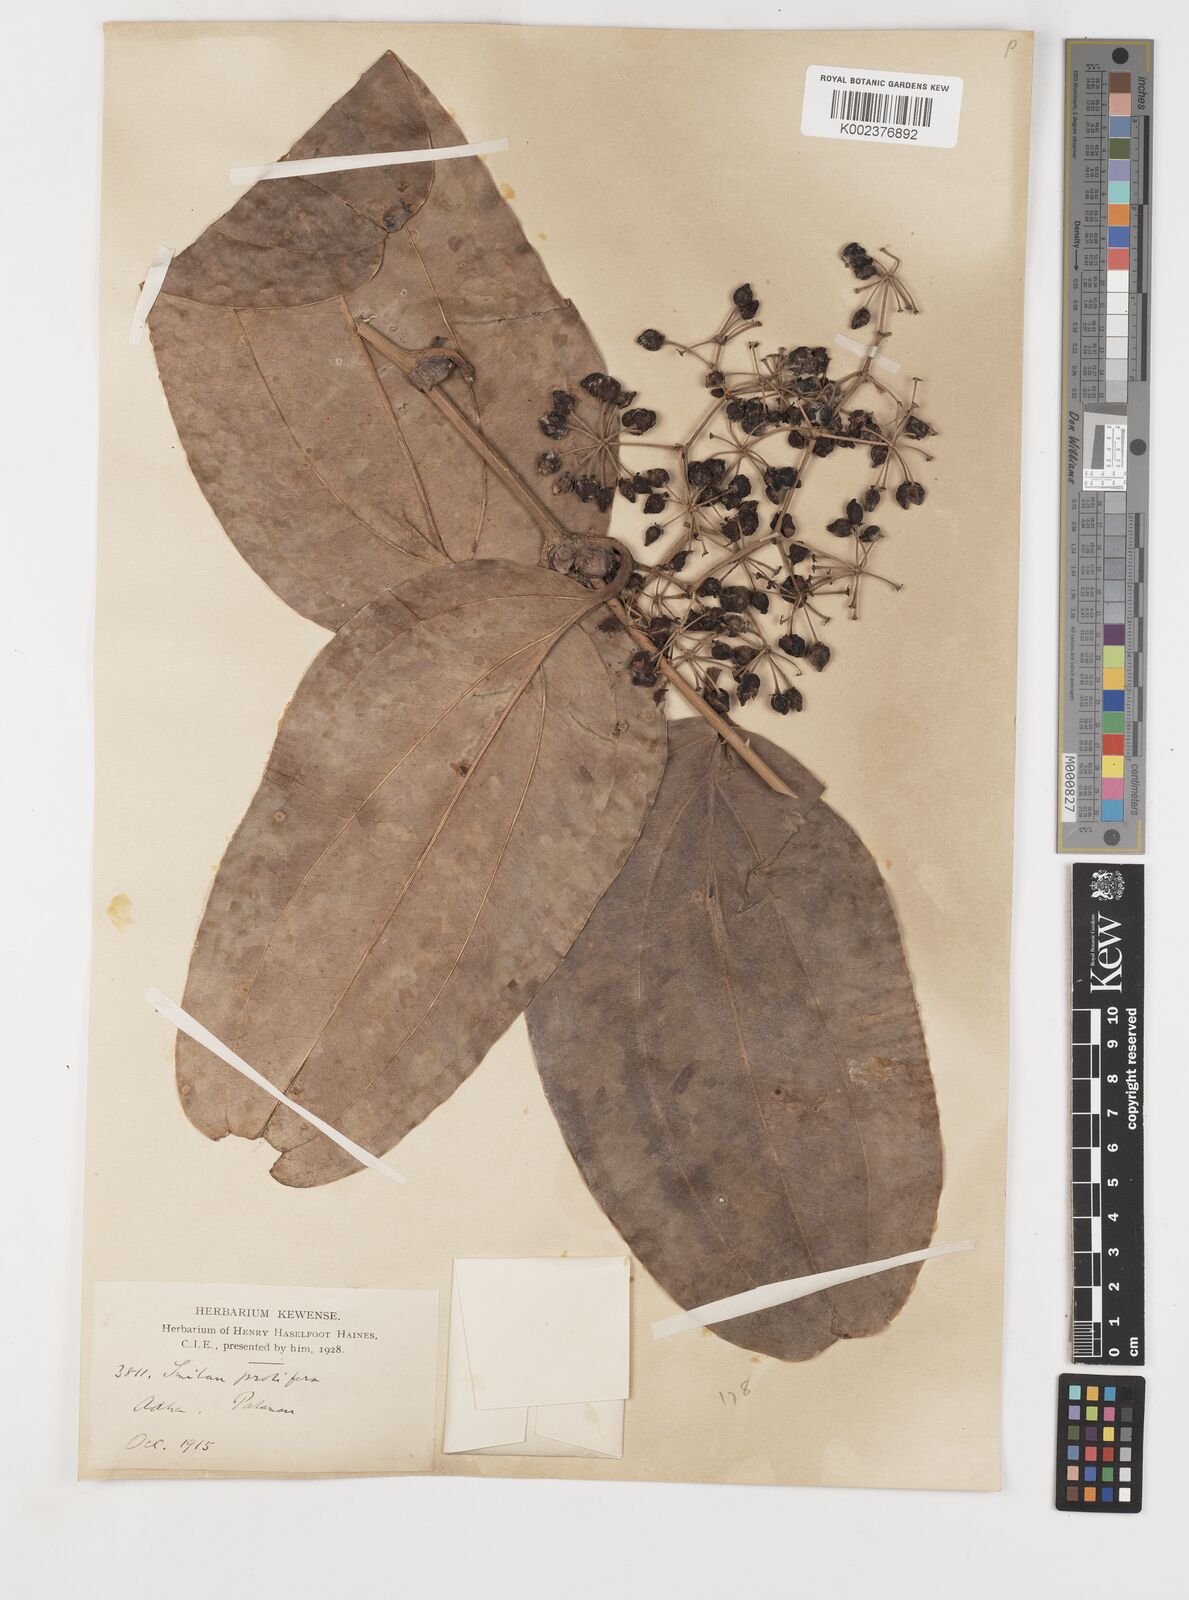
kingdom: Plantae
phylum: Tracheophyta
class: Liliopsida
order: Liliales
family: Smilacaceae
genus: Smilax
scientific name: Smilax prolifera
